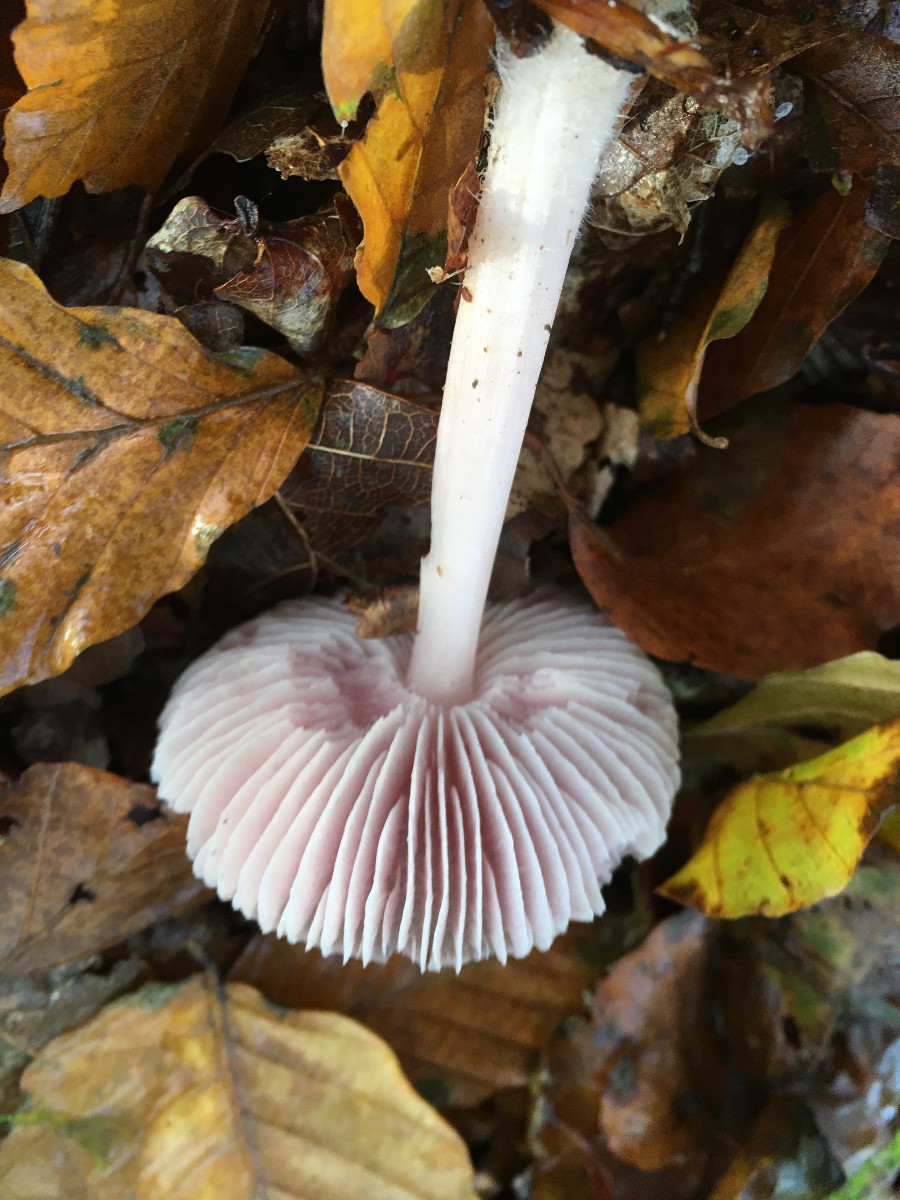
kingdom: Fungi
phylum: Basidiomycota
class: Agaricomycetes
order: Agaricales
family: Mycenaceae
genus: Mycena
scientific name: Mycena rosea
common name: rosa huesvamp
